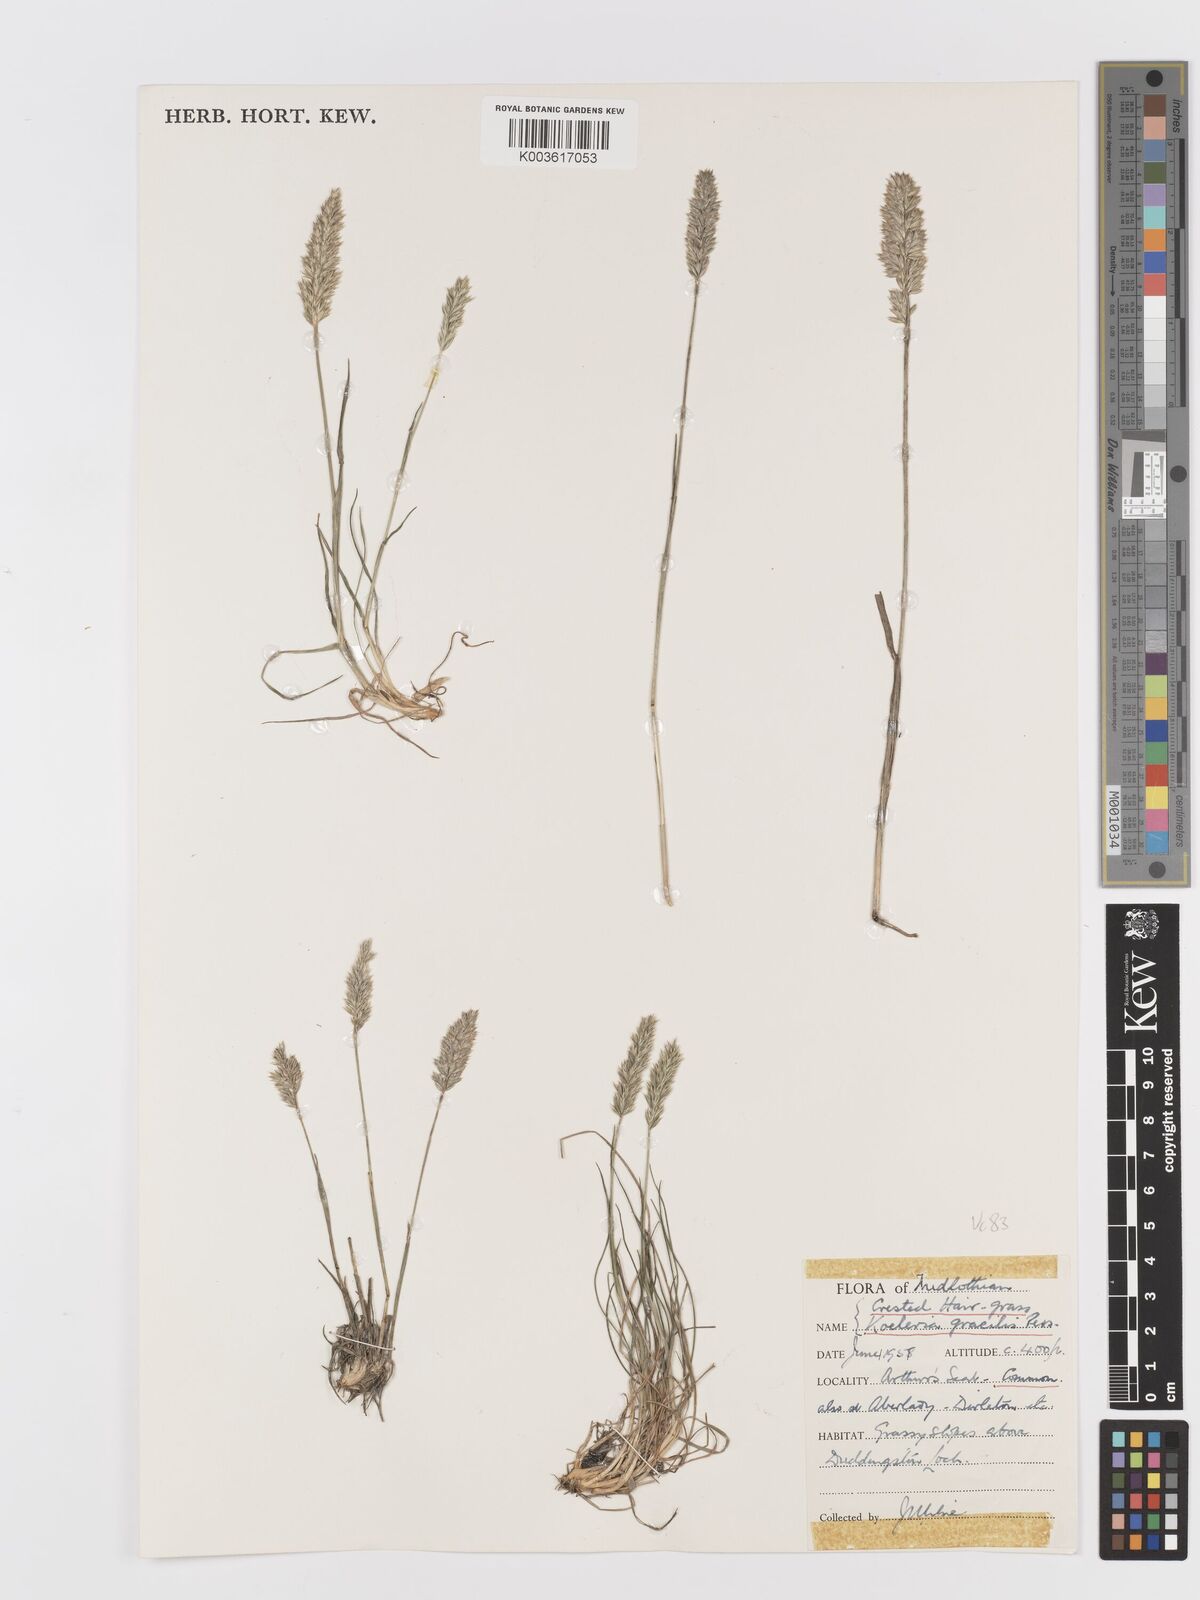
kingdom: Plantae
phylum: Tracheophyta
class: Liliopsida
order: Poales
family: Poaceae
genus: Koeleria
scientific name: Koeleria macrantha
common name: Crested hair-grass
